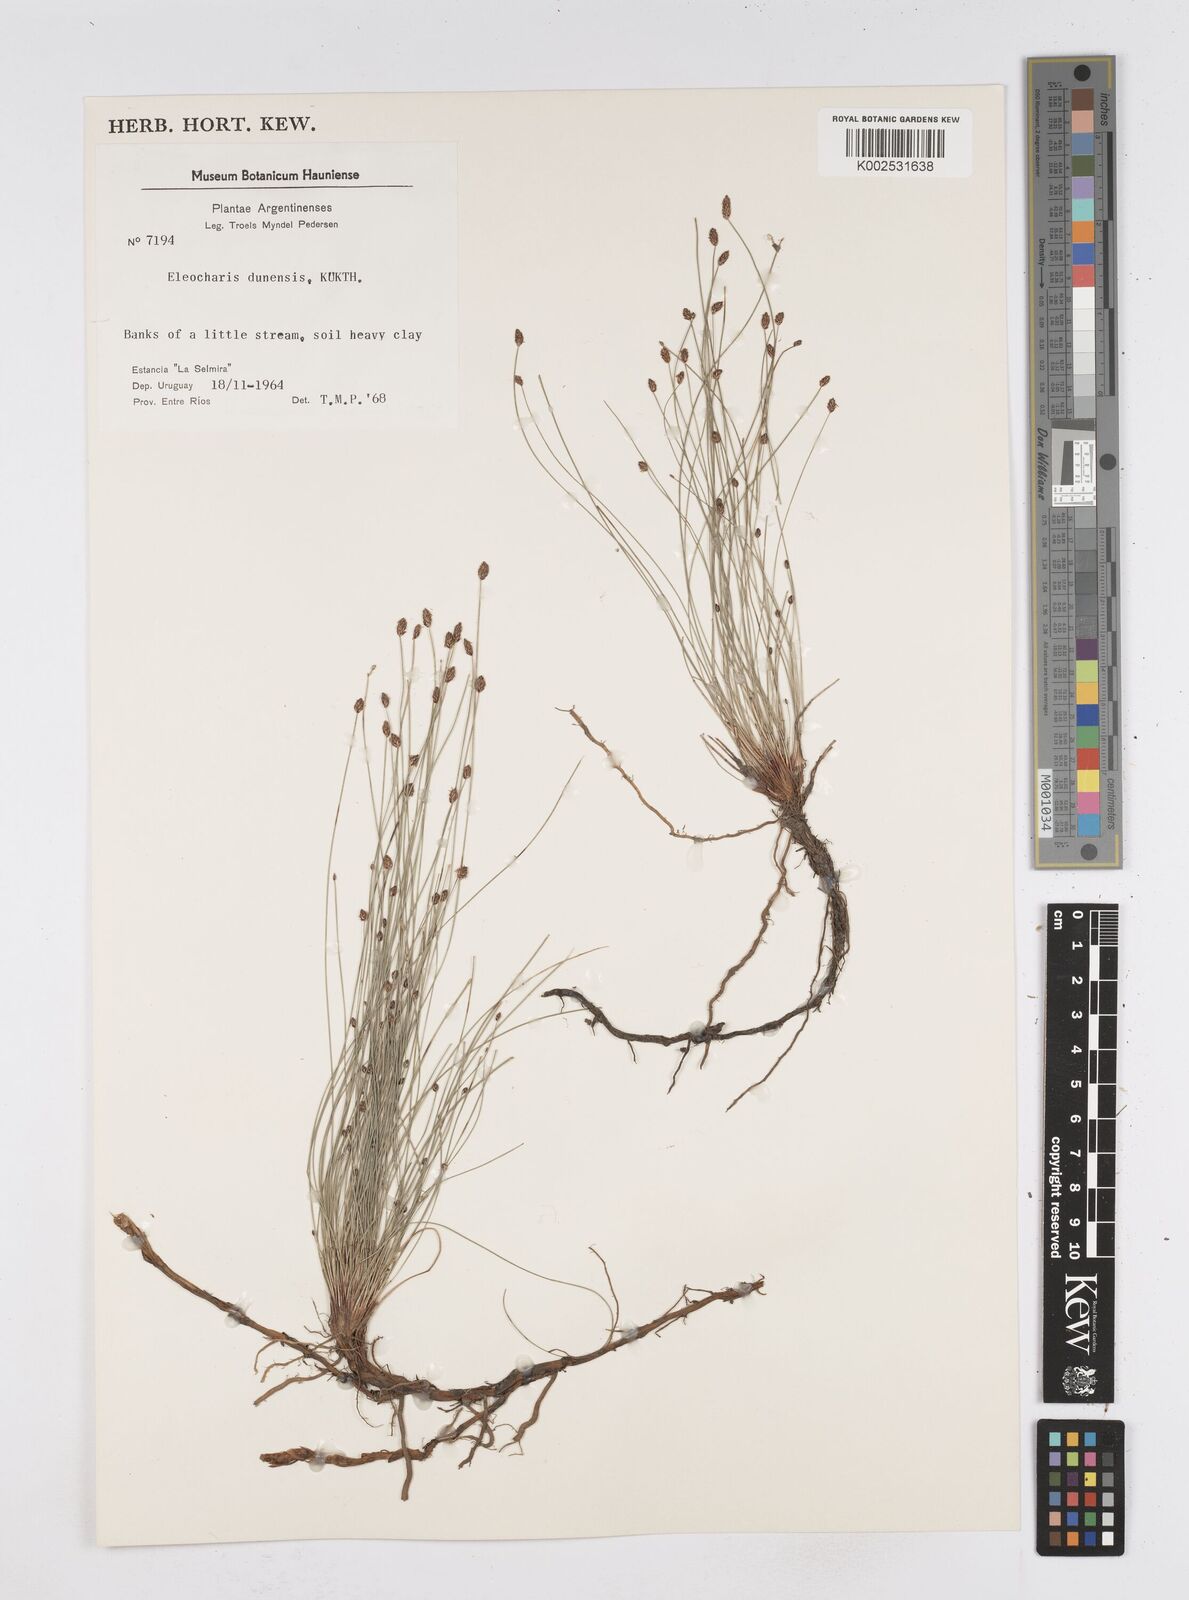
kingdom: Plantae
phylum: Tracheophyta
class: Liliopsida
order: Poales
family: Cyperaceae
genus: Eleocharis
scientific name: Eleocharis dunensis
